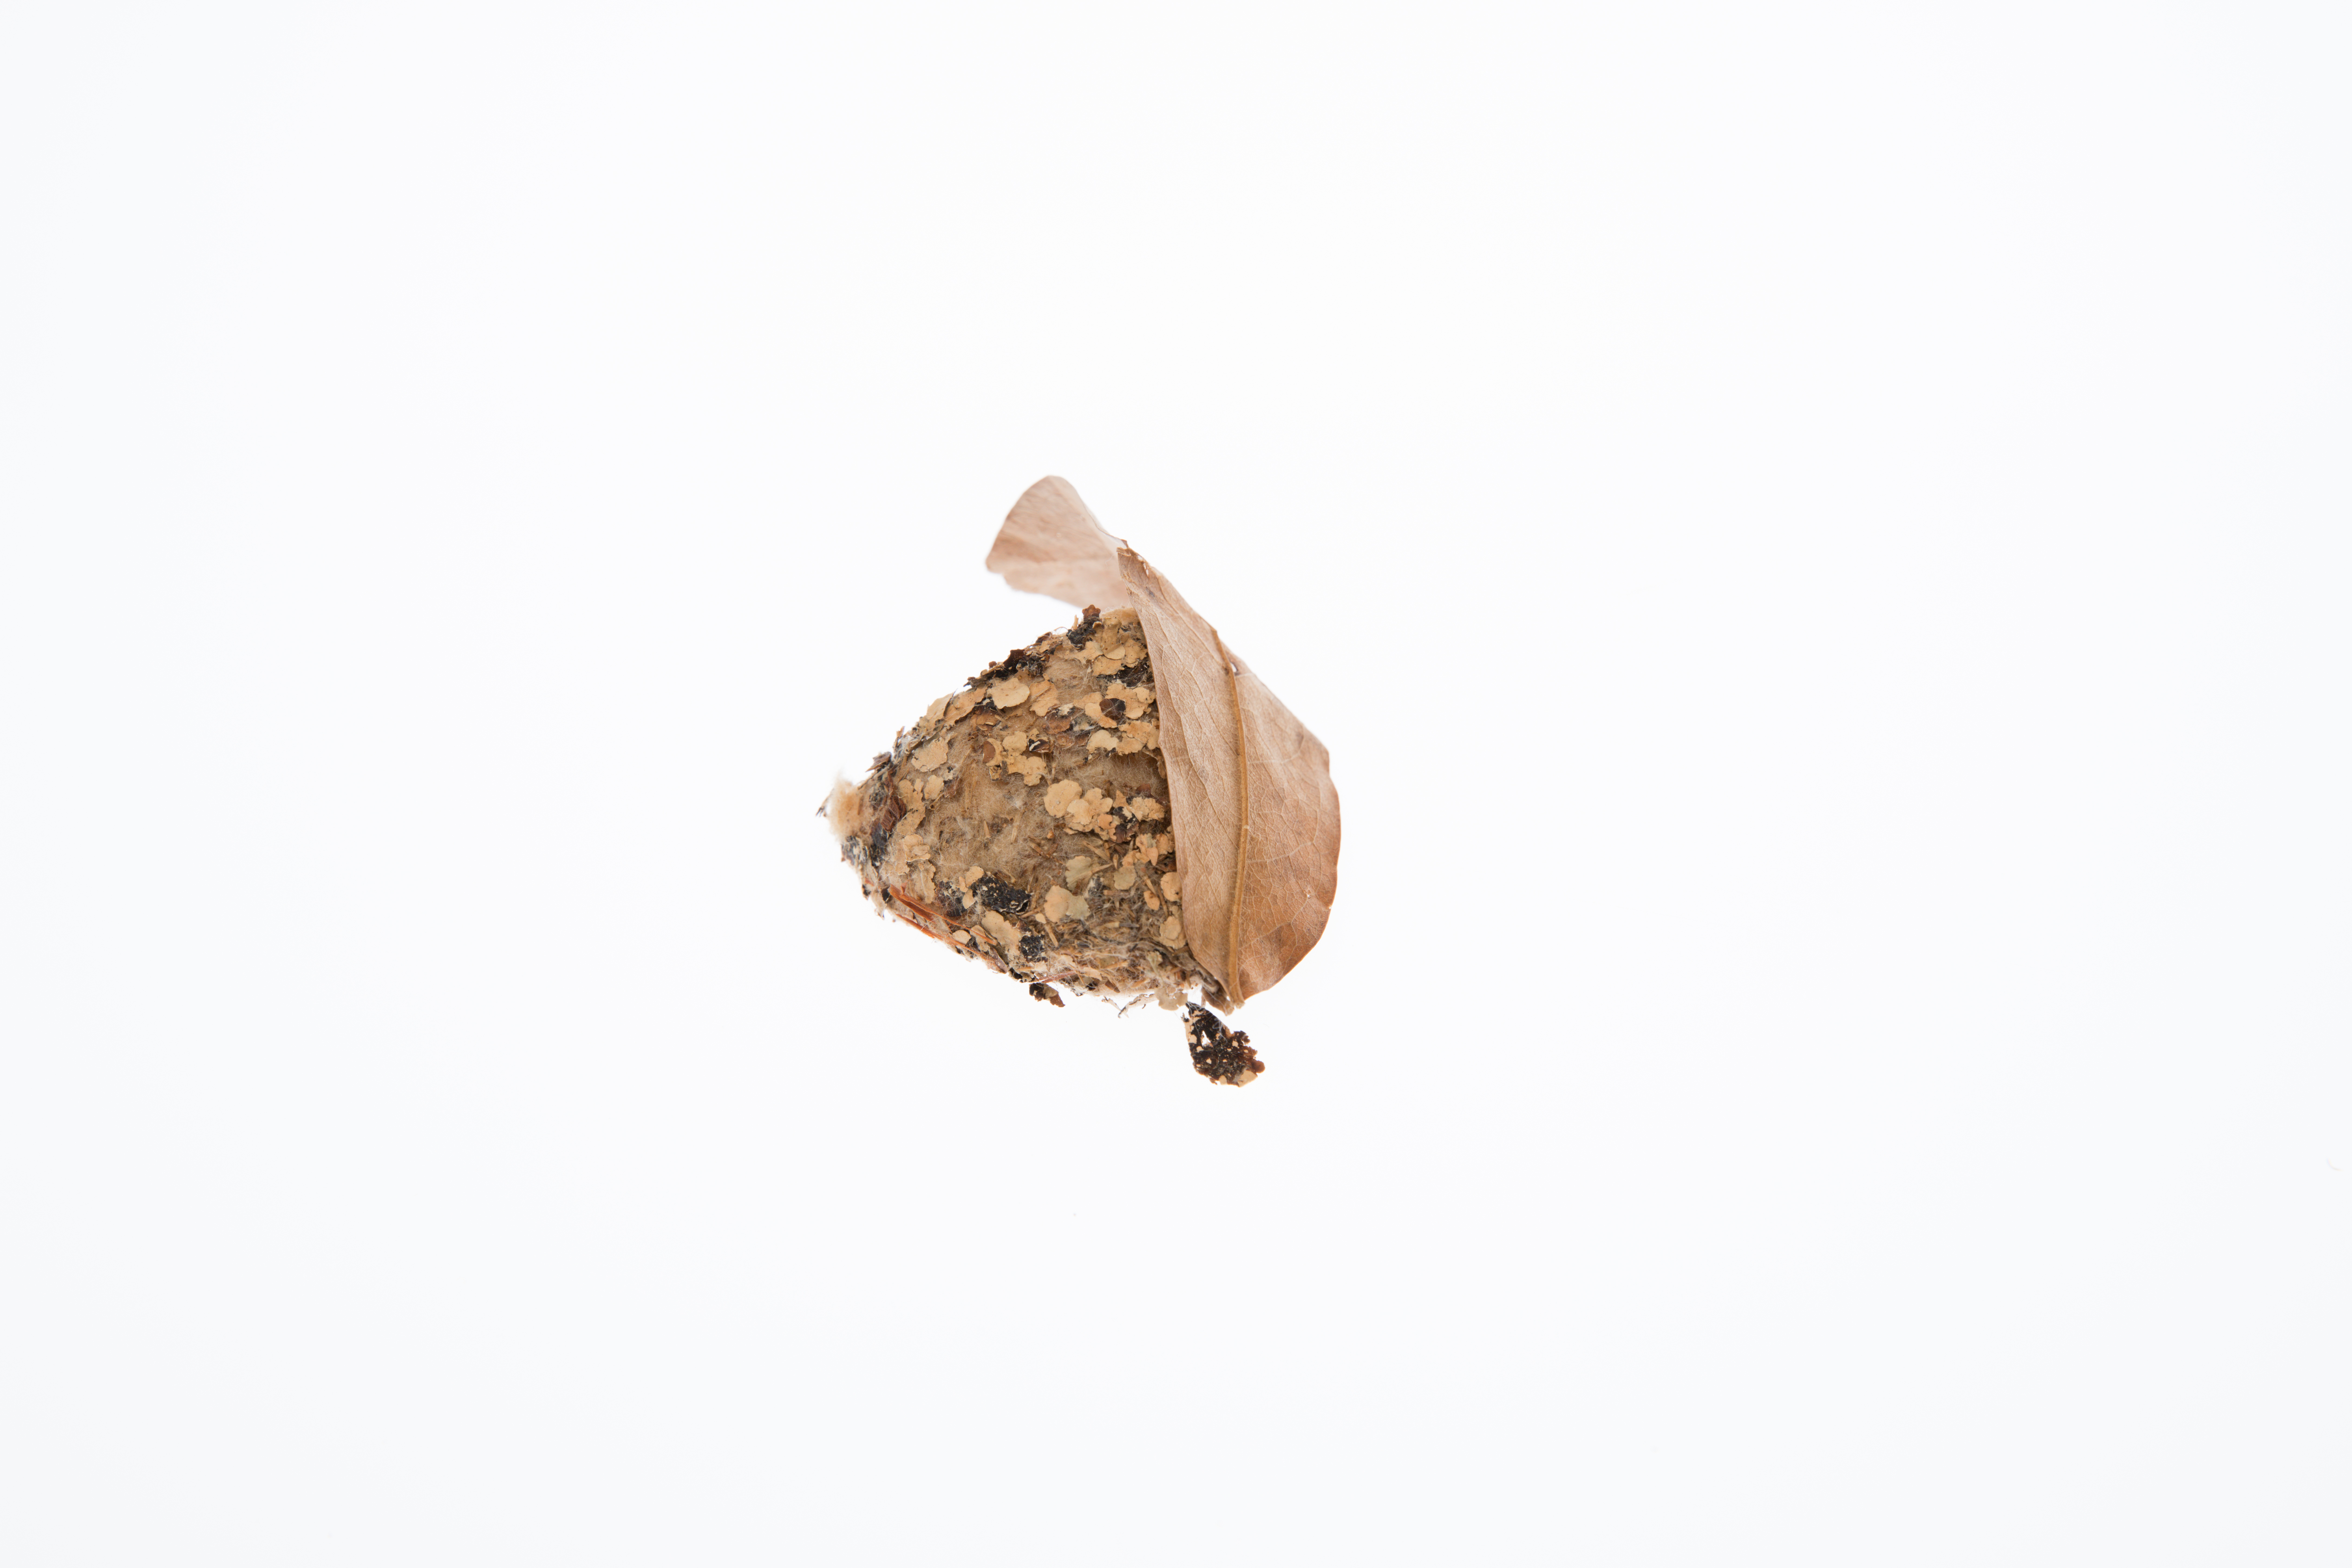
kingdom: Animalia
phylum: Chordata
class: Aves
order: Apodiformes
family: Trochilidae
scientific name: Trochilidae
